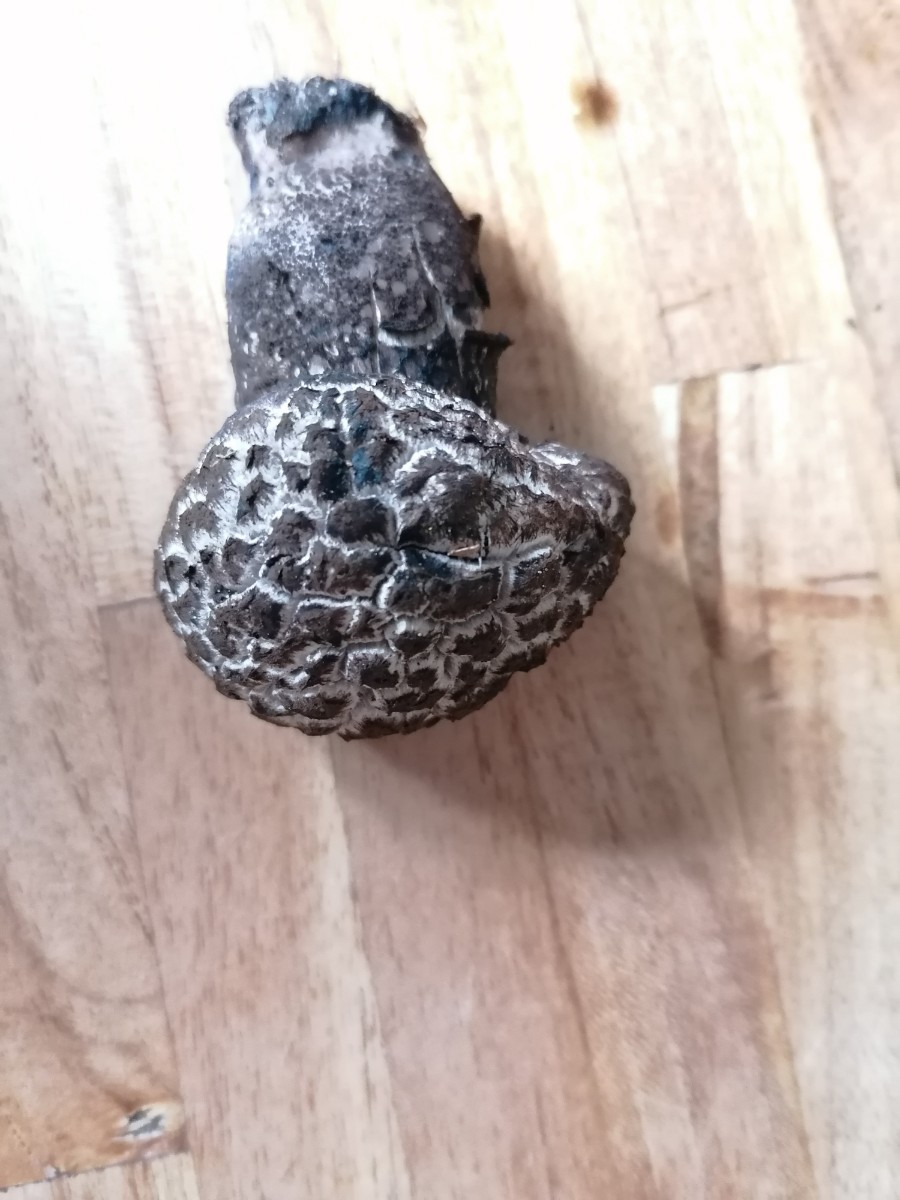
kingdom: Fungi
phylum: Basidiomycota
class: Agaricomycetes
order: Boletales
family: Boletaceae
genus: Strobilomyces
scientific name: Strobilomyces strobilaceus
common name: koglerørhat
